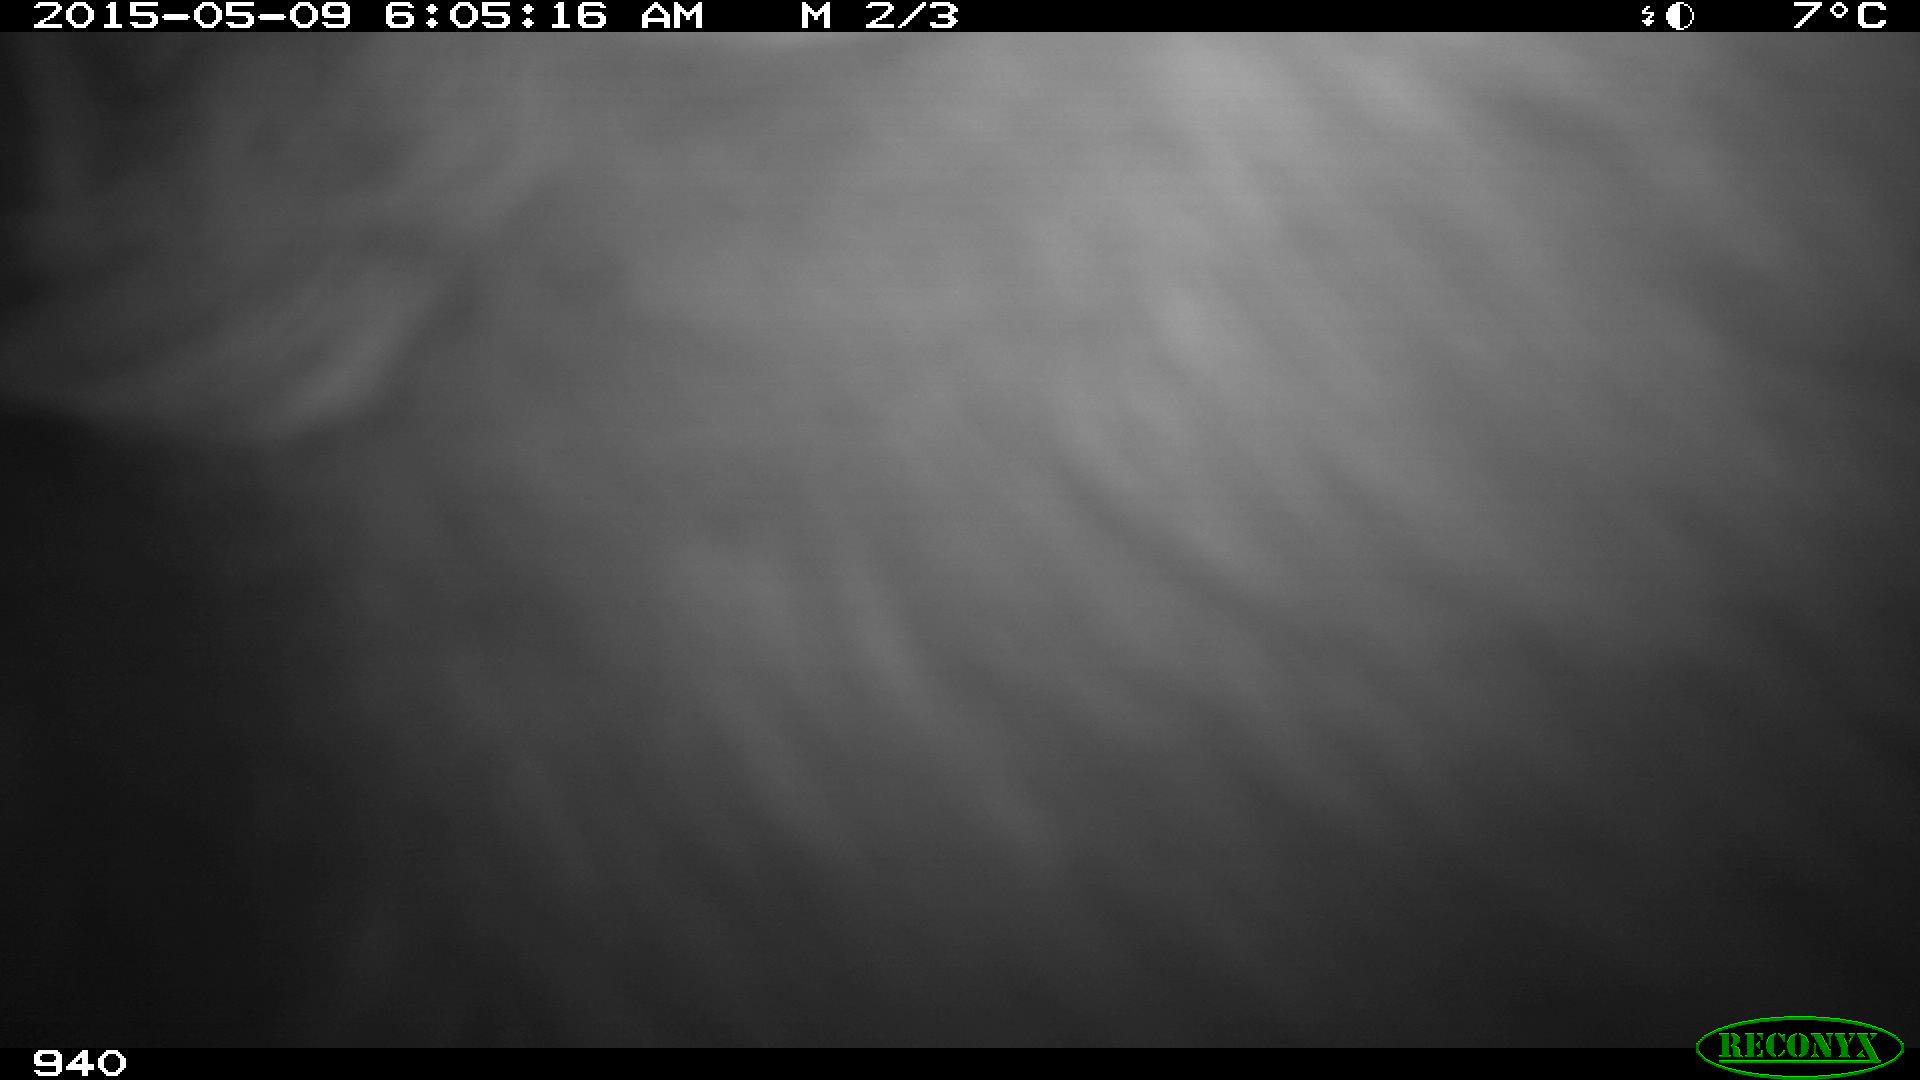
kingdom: Animalia
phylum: Chordata
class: Mammalia
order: Artiodactyla
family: Bovidae
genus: Bos
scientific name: Bos taurus
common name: Domesticated cattle
